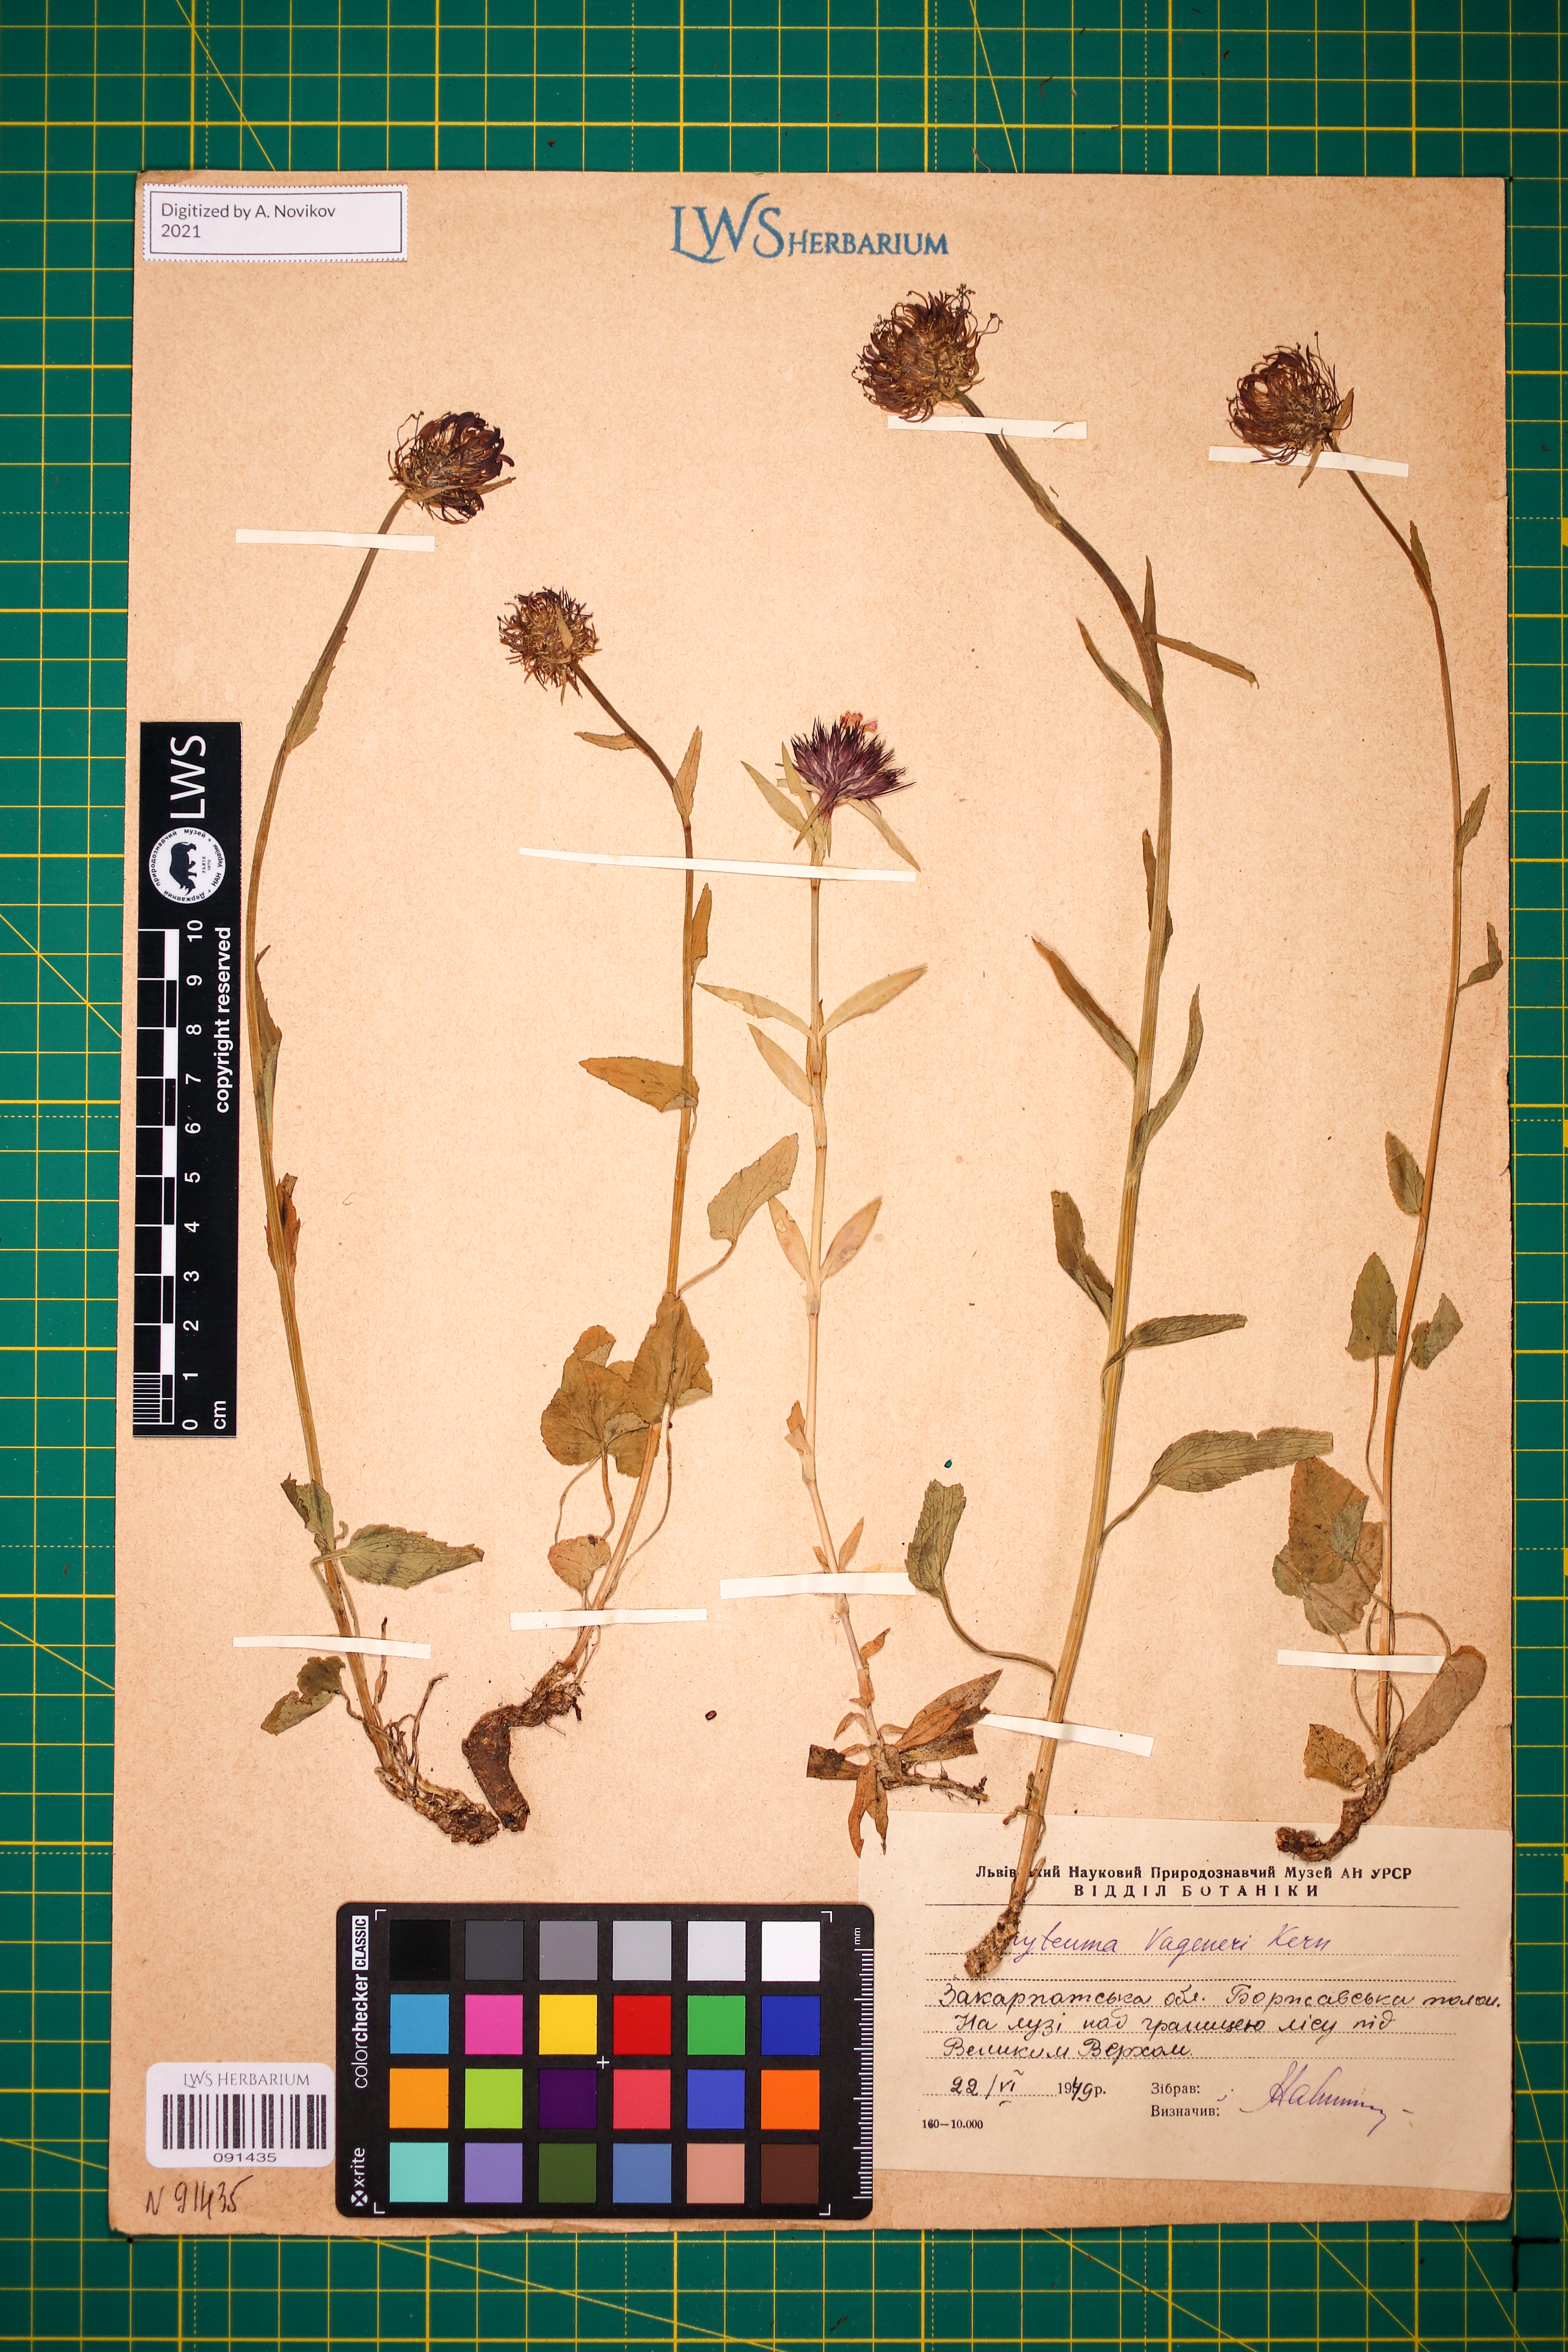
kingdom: Plantae
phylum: Tracheophyta
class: Magnoliopsida
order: Asterales
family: Campanulaceae
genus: Phyteuma
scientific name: Phyteuma vagneri
